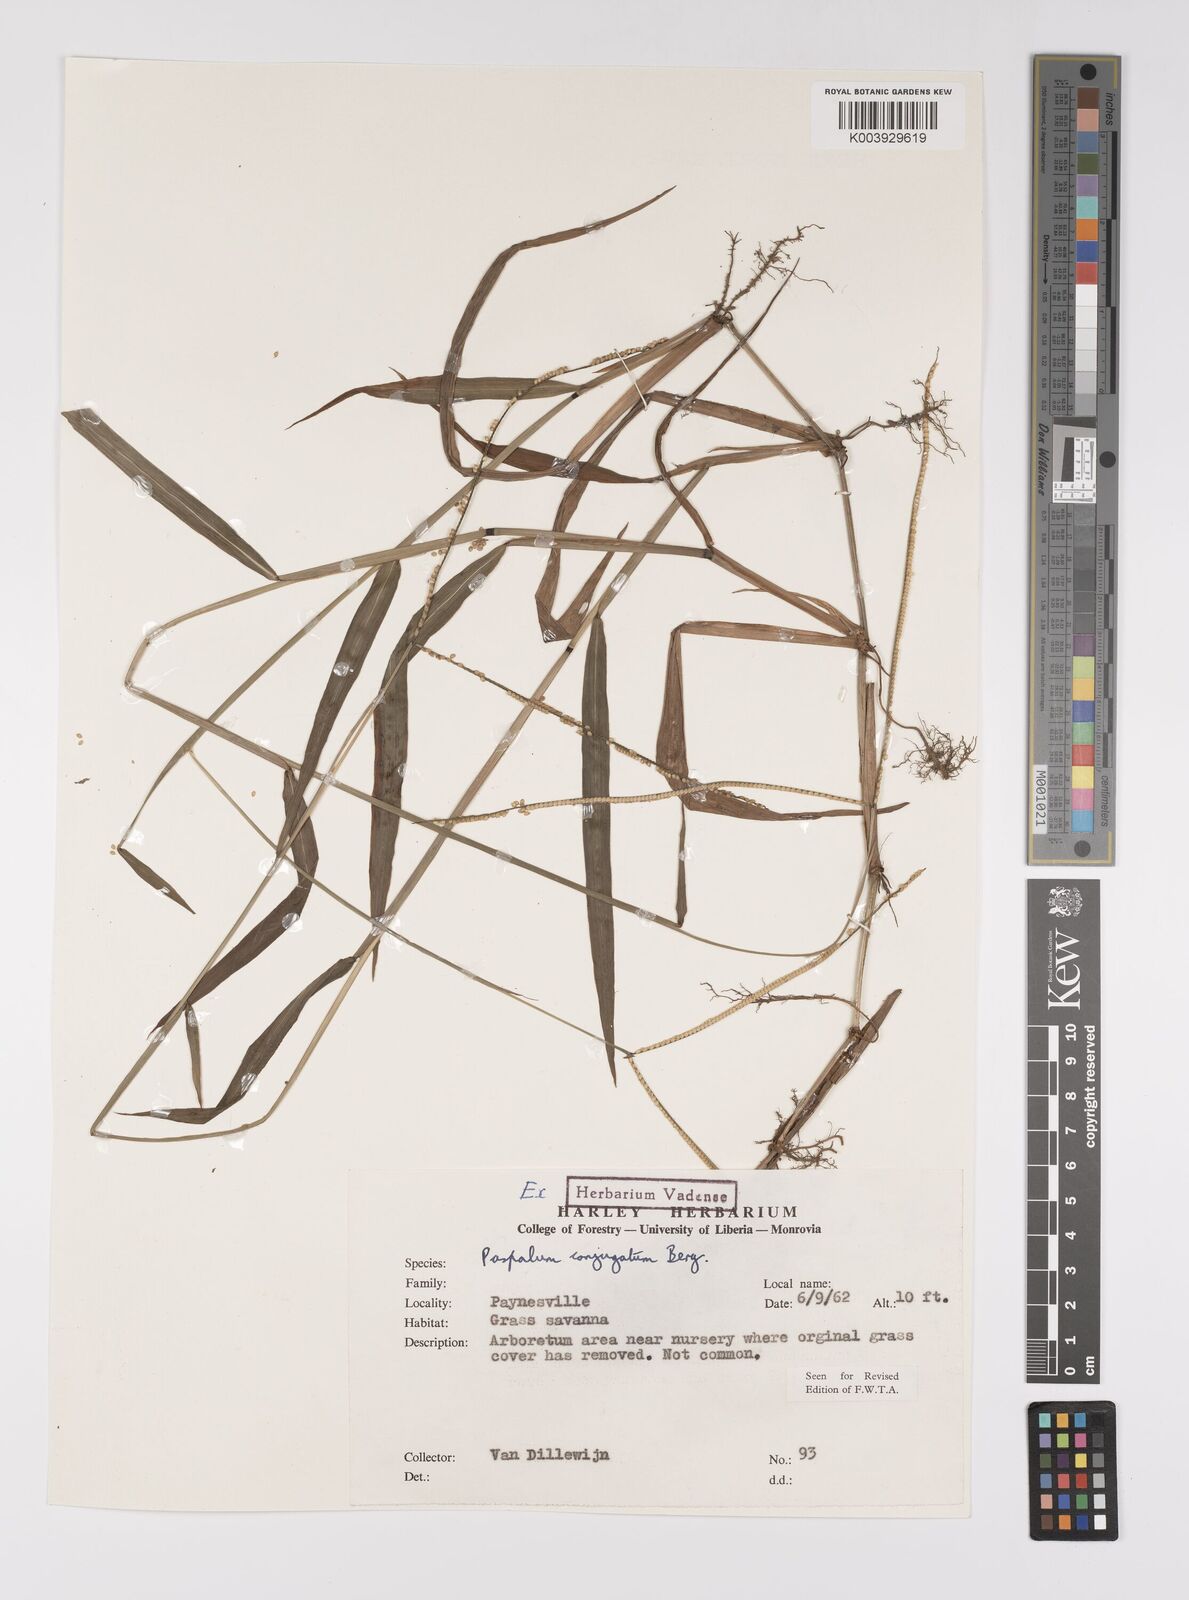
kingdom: Plantae
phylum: Tracheophyta
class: Liliopsida
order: Poales
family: Poaceae
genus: Paspalum
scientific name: Paspalum conjugatum
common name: Hilograss
